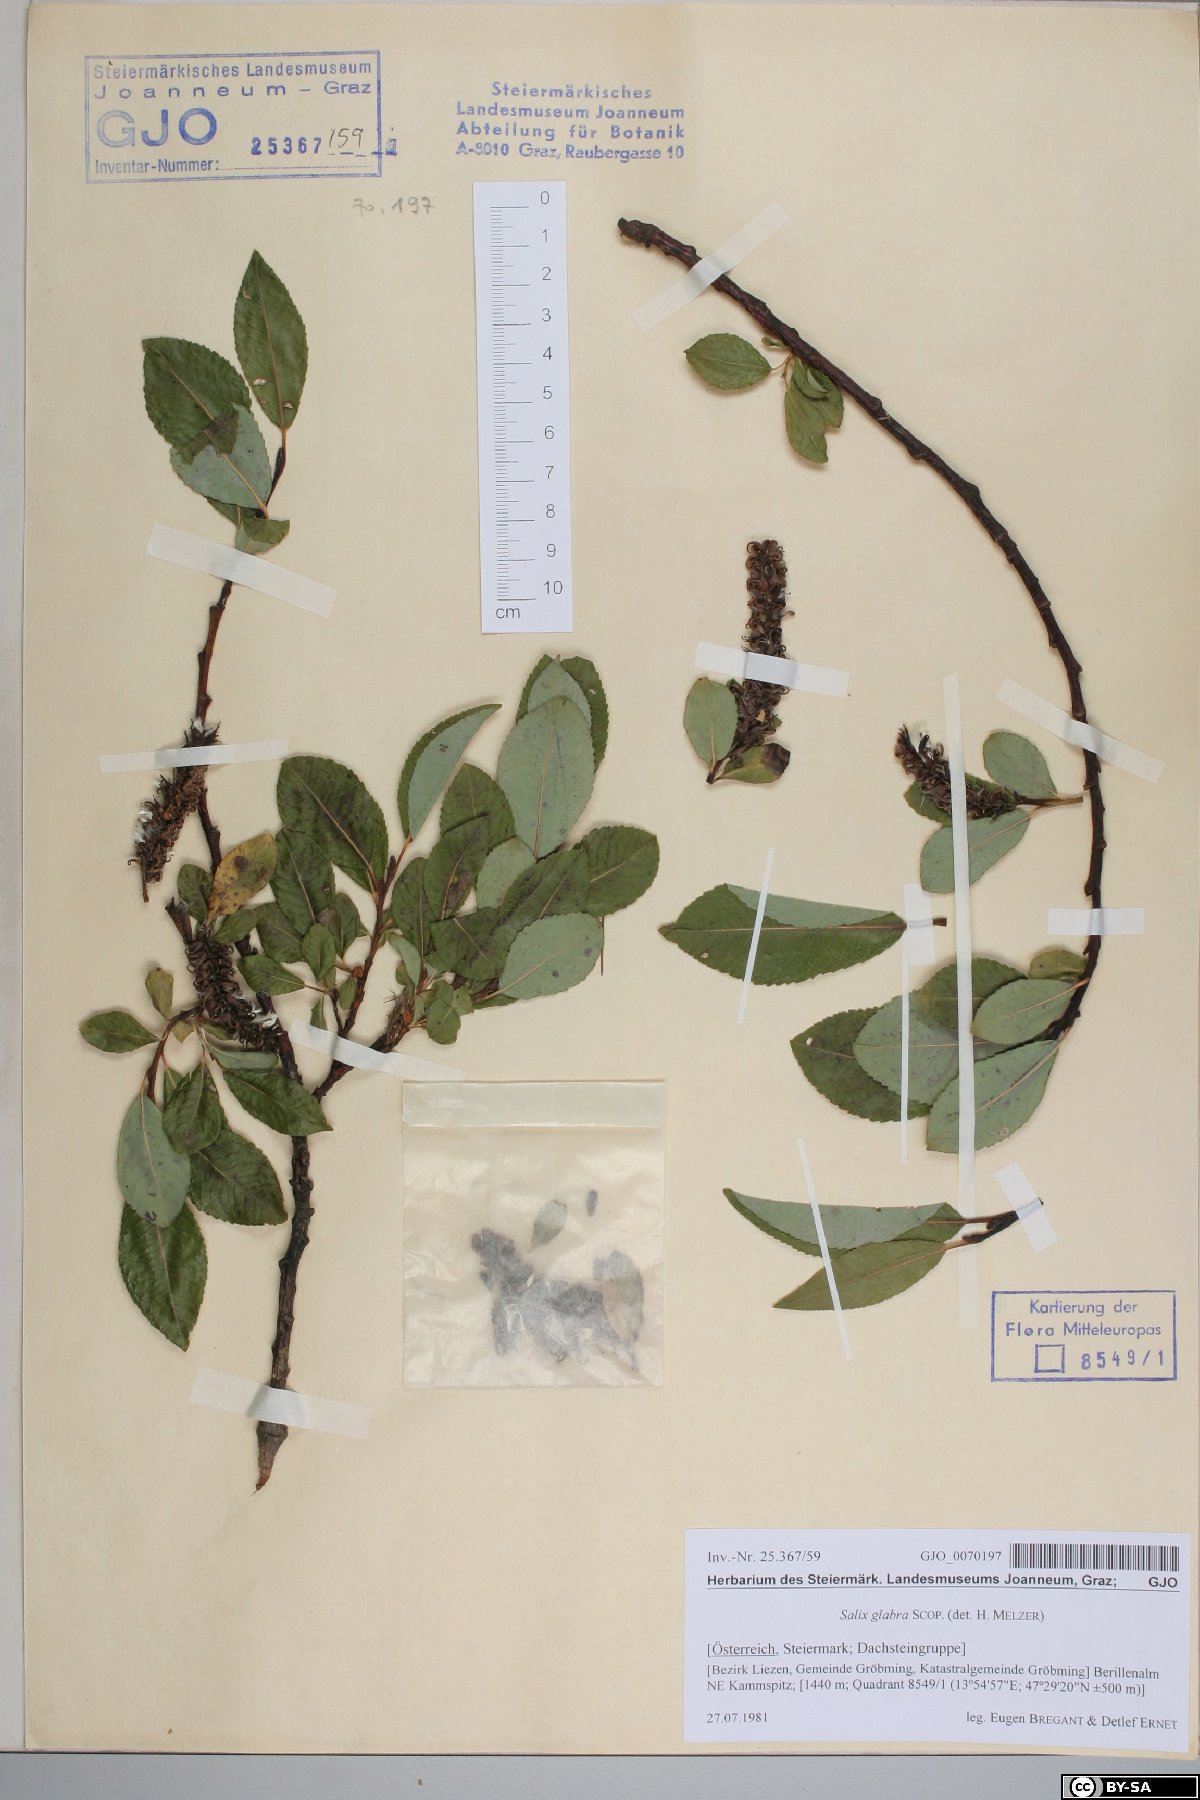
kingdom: Plantae
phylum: Tracheophyta
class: Magnoliopsida
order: Malpighiales
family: Salicaceae
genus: Salix
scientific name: Salix glabra
